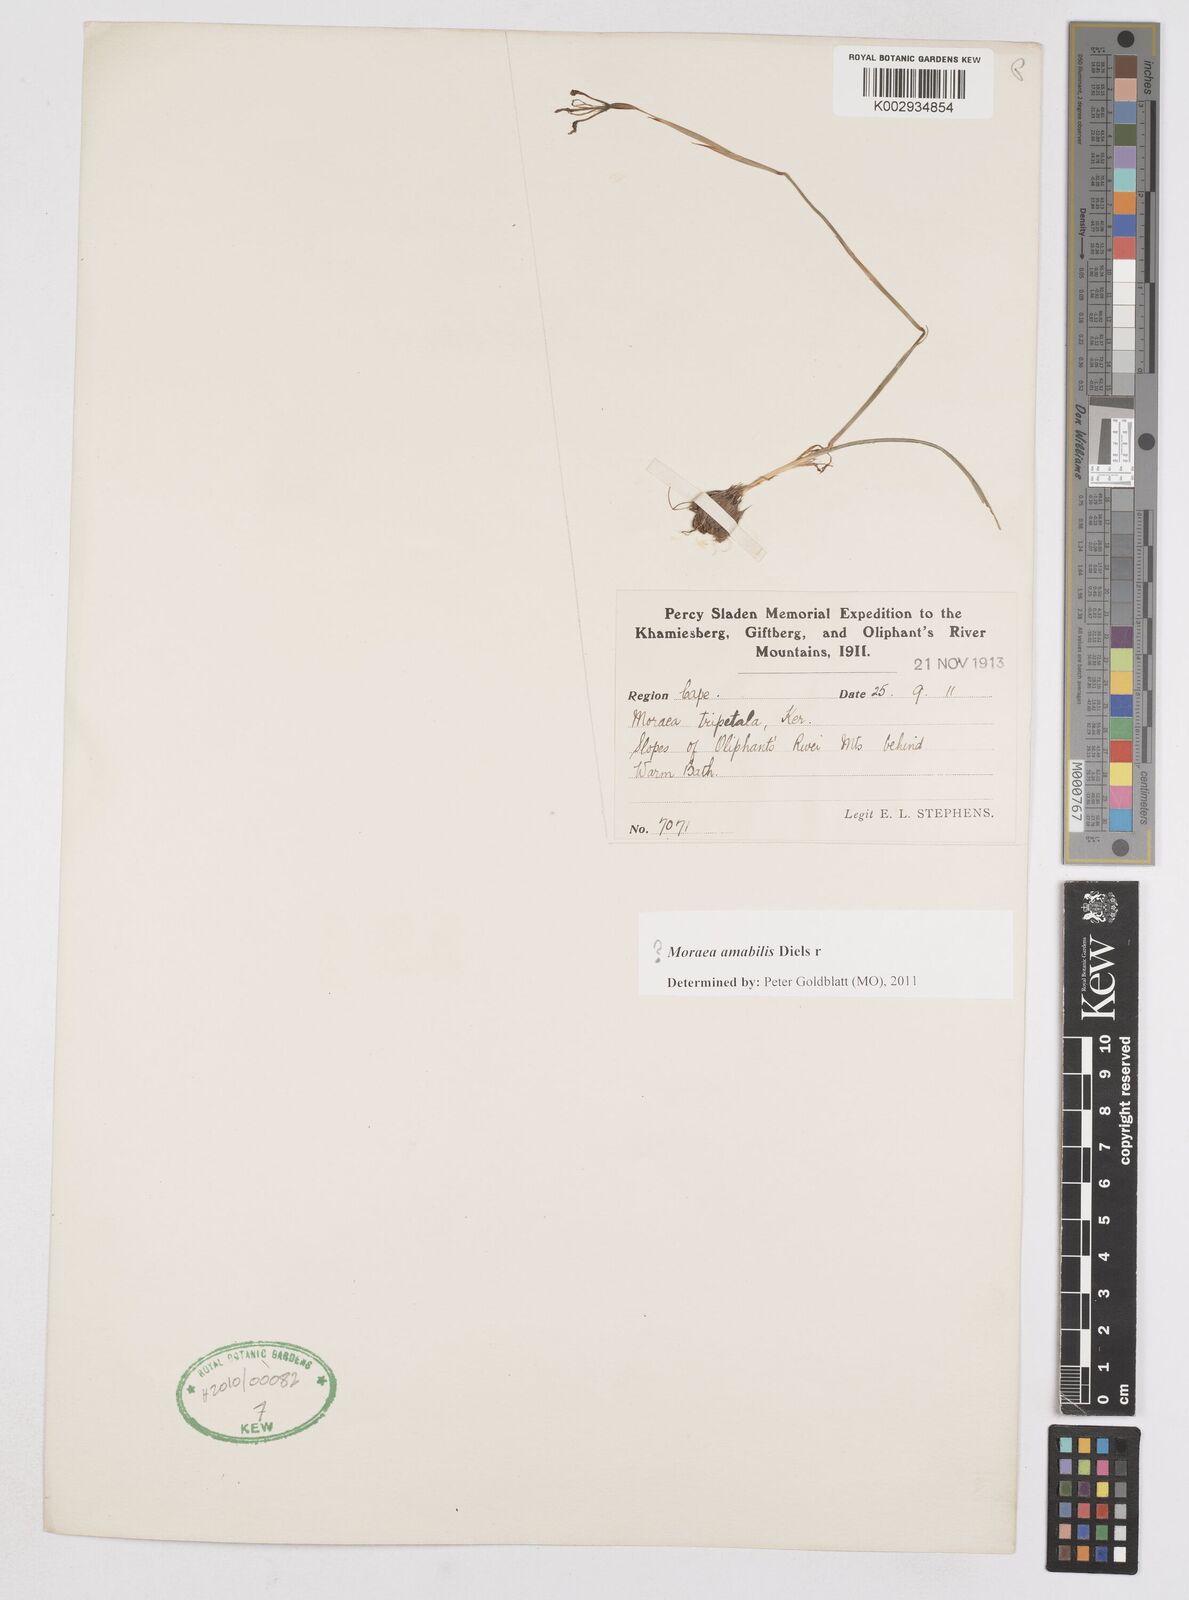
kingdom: Plantae
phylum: Tracheophyta
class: Liliopsida
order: Asparagales
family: Iridaceae
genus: Moraea
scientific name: Moraea amabilis
